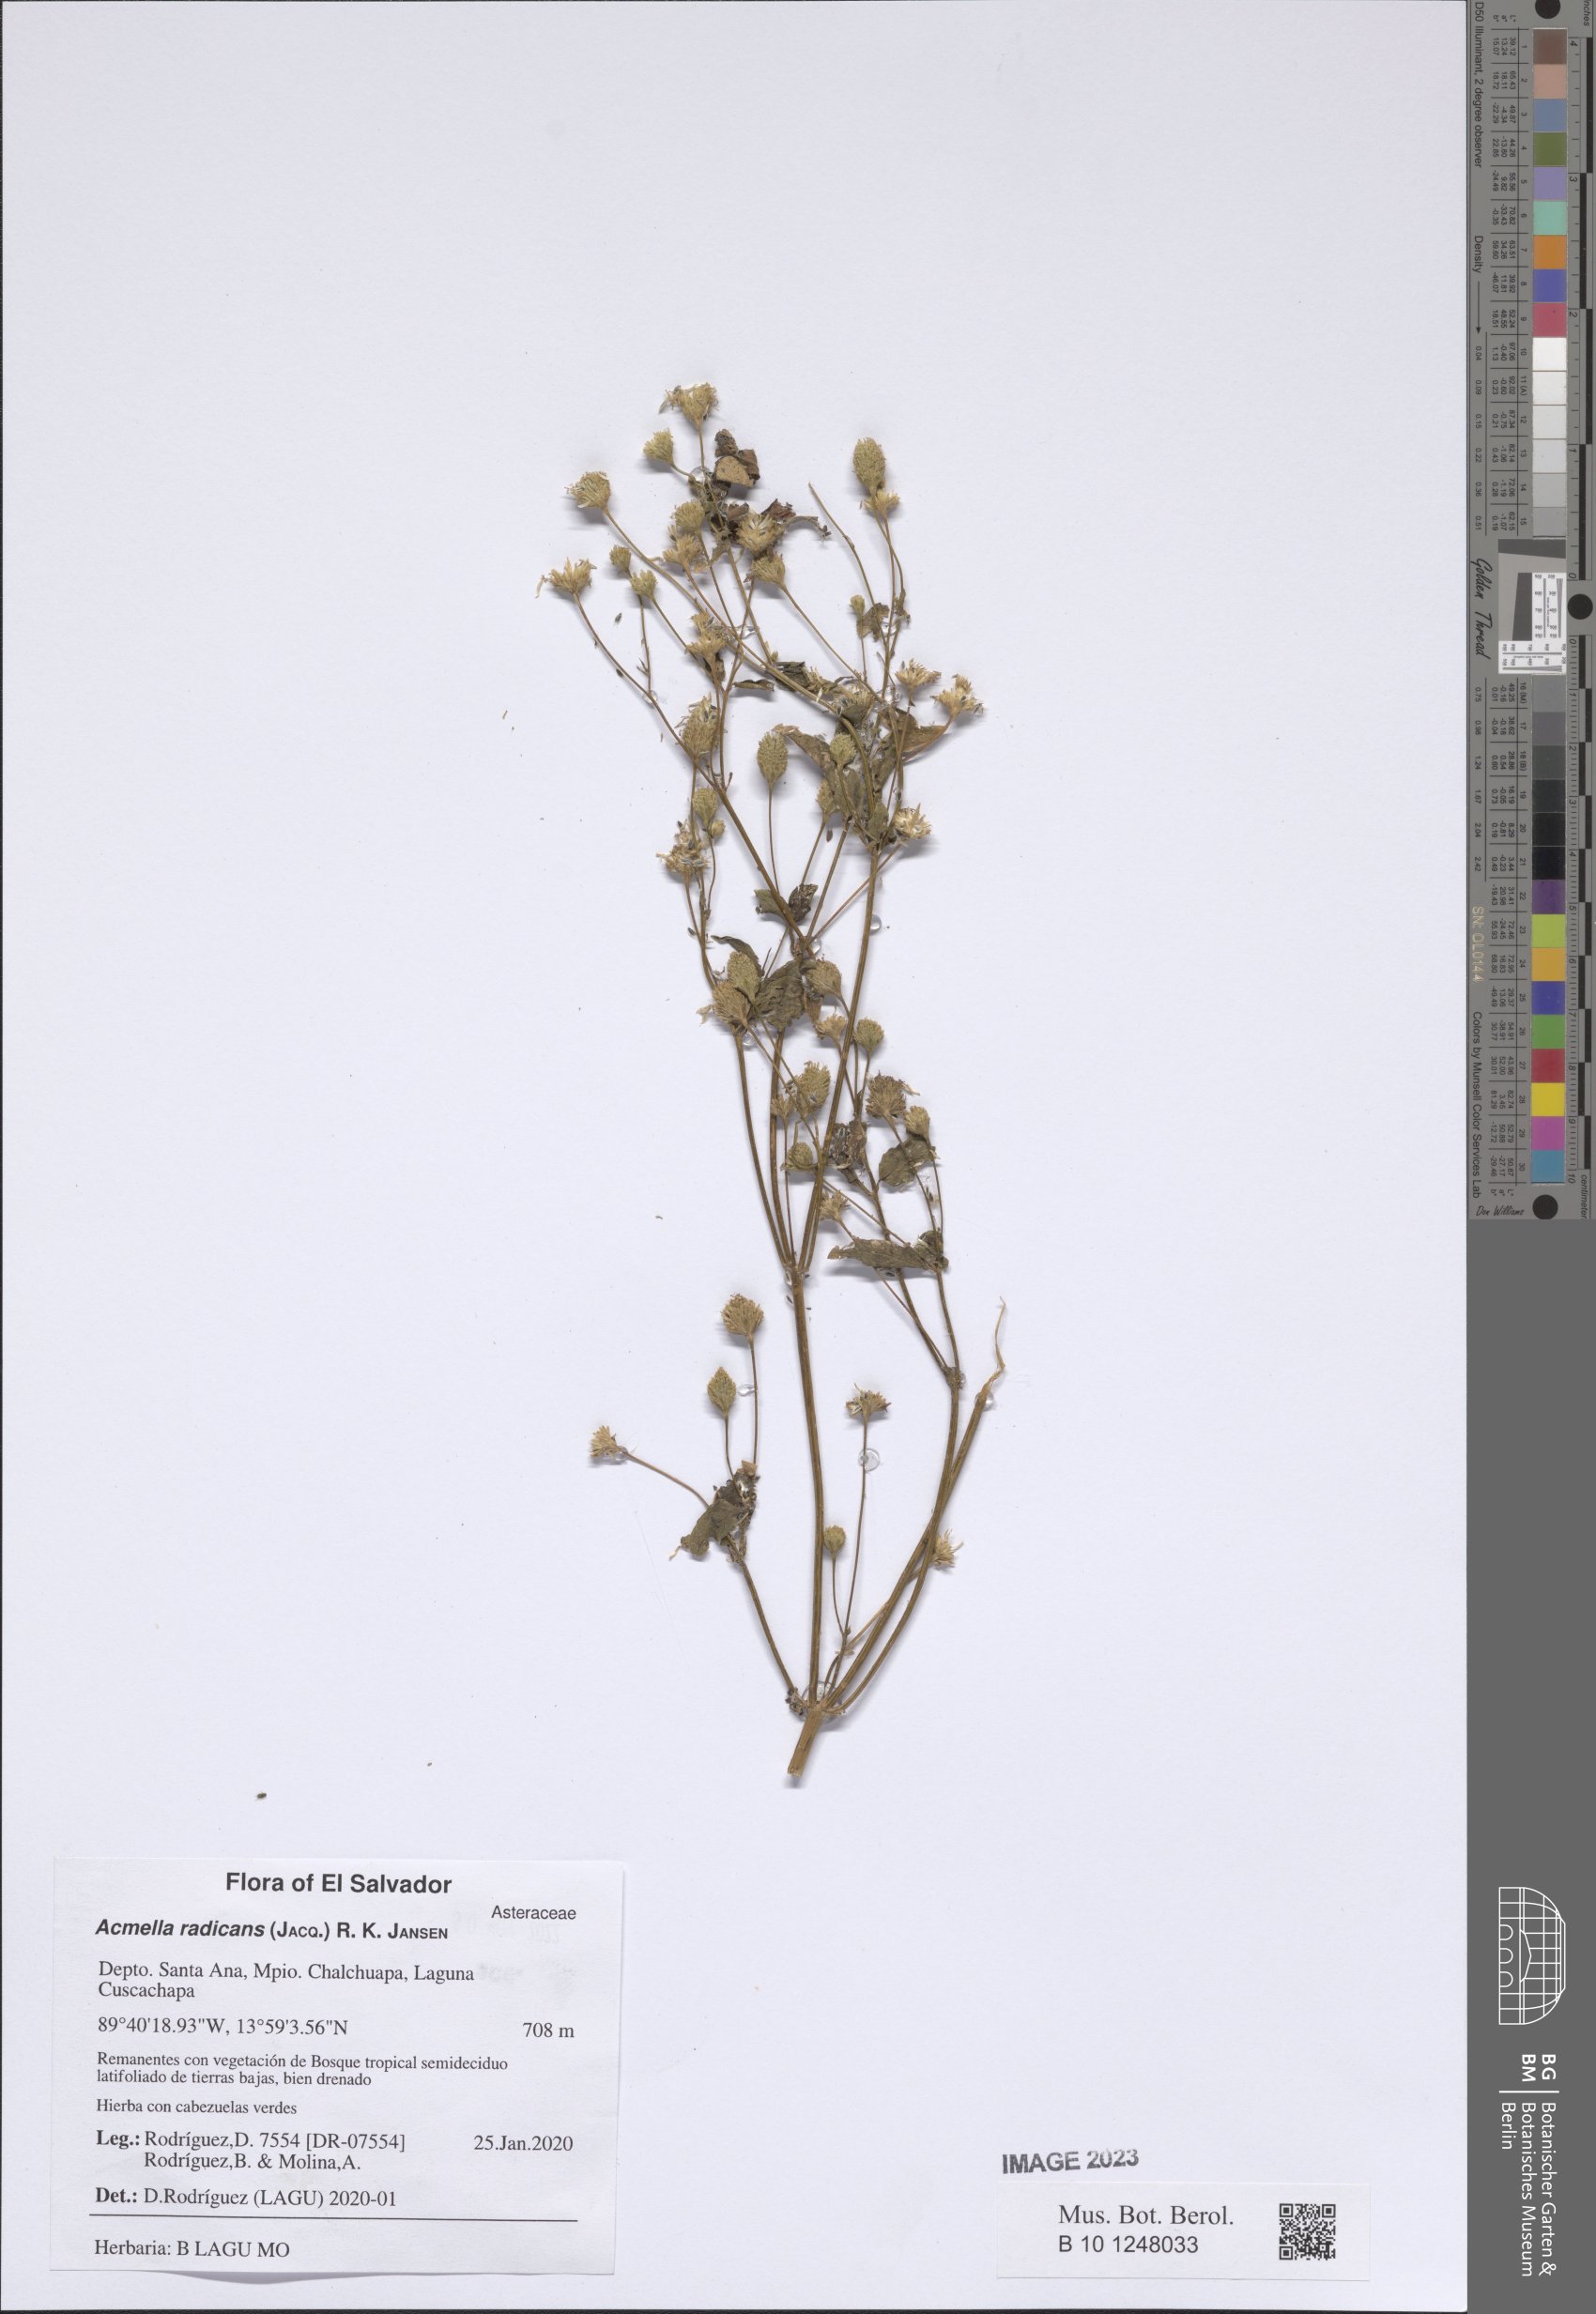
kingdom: Plantae
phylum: Tracheophyta
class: Magnoliopsida
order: Asterales
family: Asteraceae
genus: Acmella
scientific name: Acmella radicans
